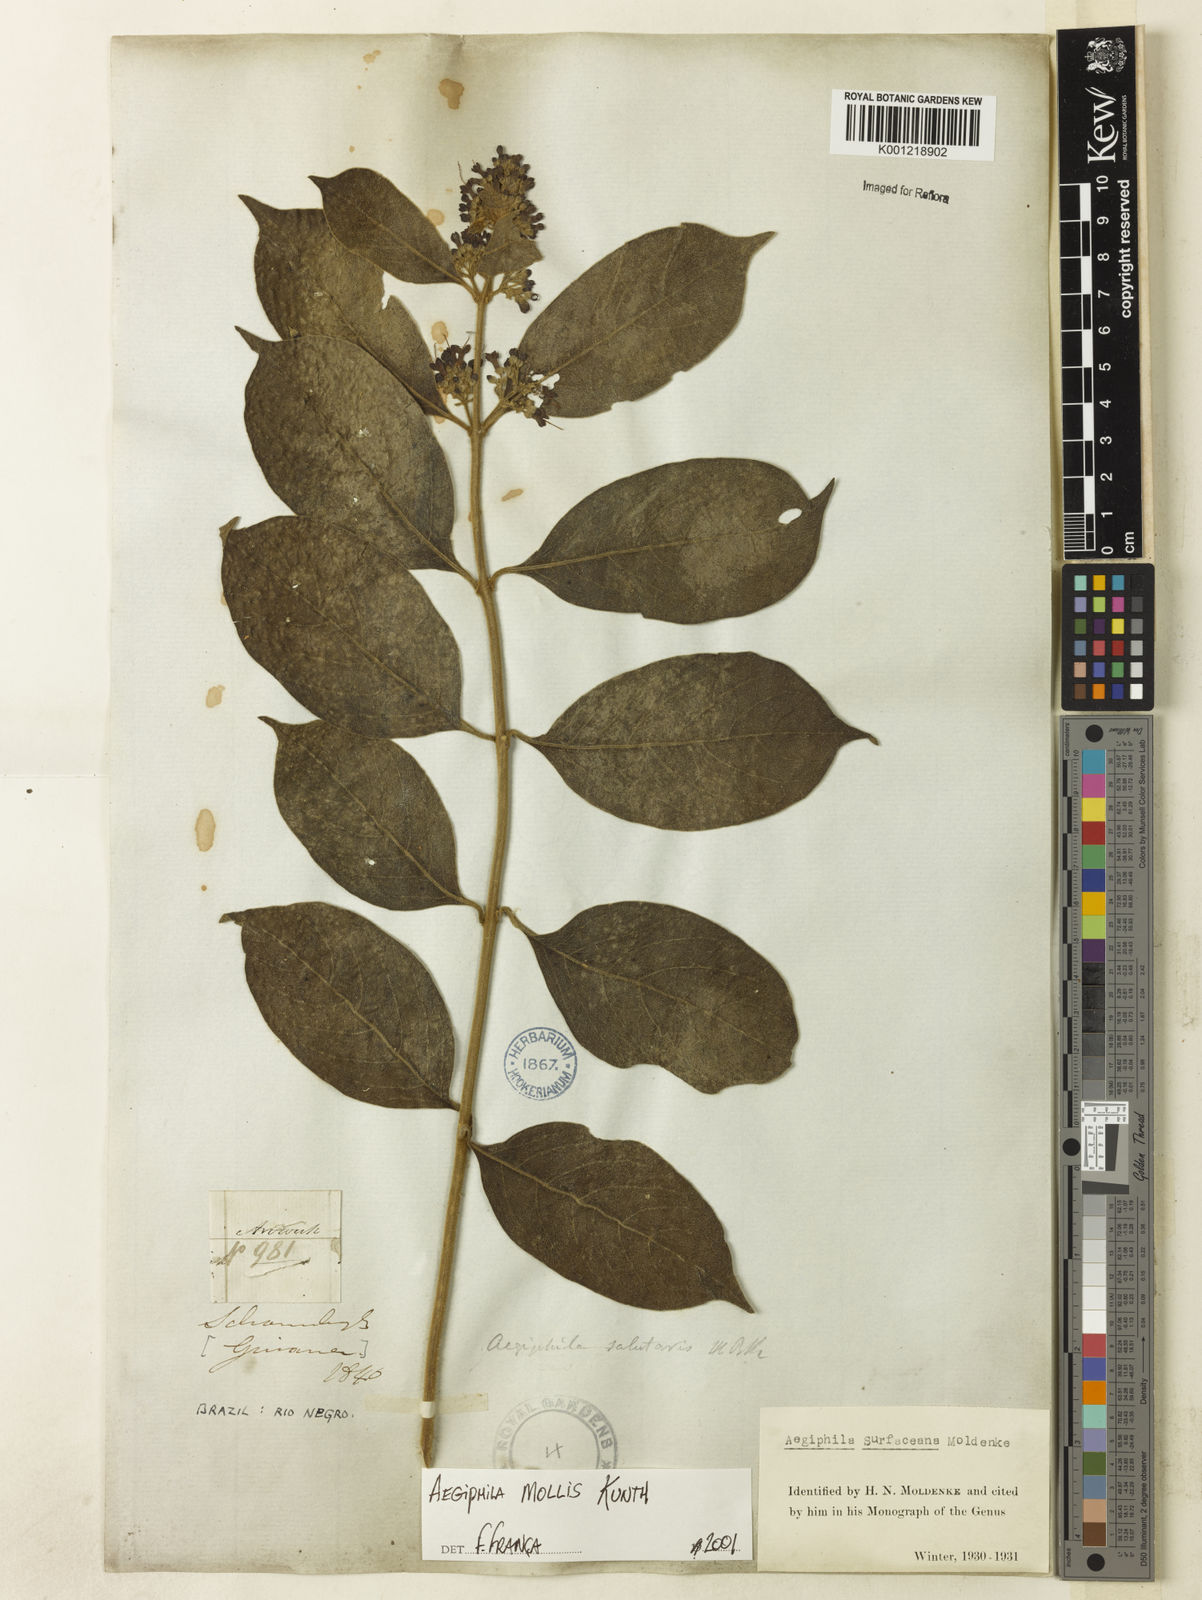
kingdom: Plantae
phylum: Tracheophyta
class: Magnoliopsida
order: Lamiales
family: Lamiaceae
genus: Aegiphila
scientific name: Aegiphila mollis
